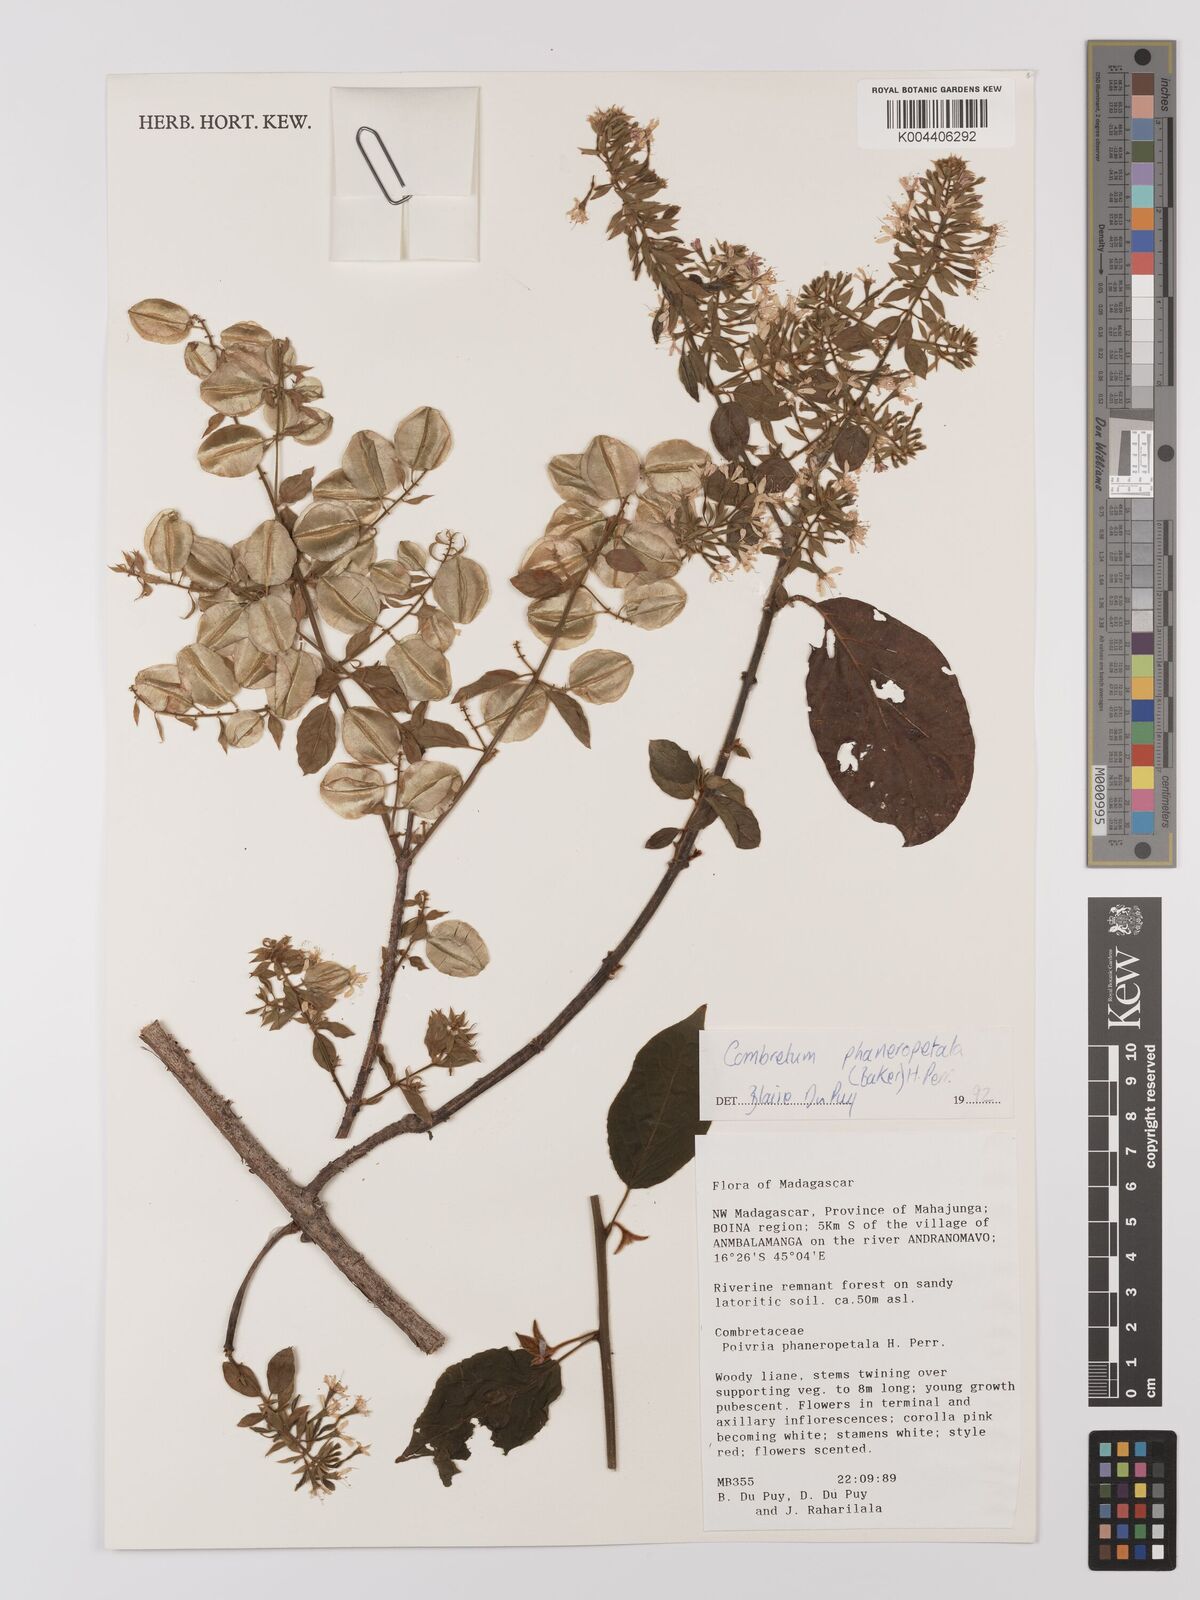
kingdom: Plantae
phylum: Tracheophyta
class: Magnoliopsida
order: Myrtales
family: Combretaceae
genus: Combretum
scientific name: Combretum albiflorum
